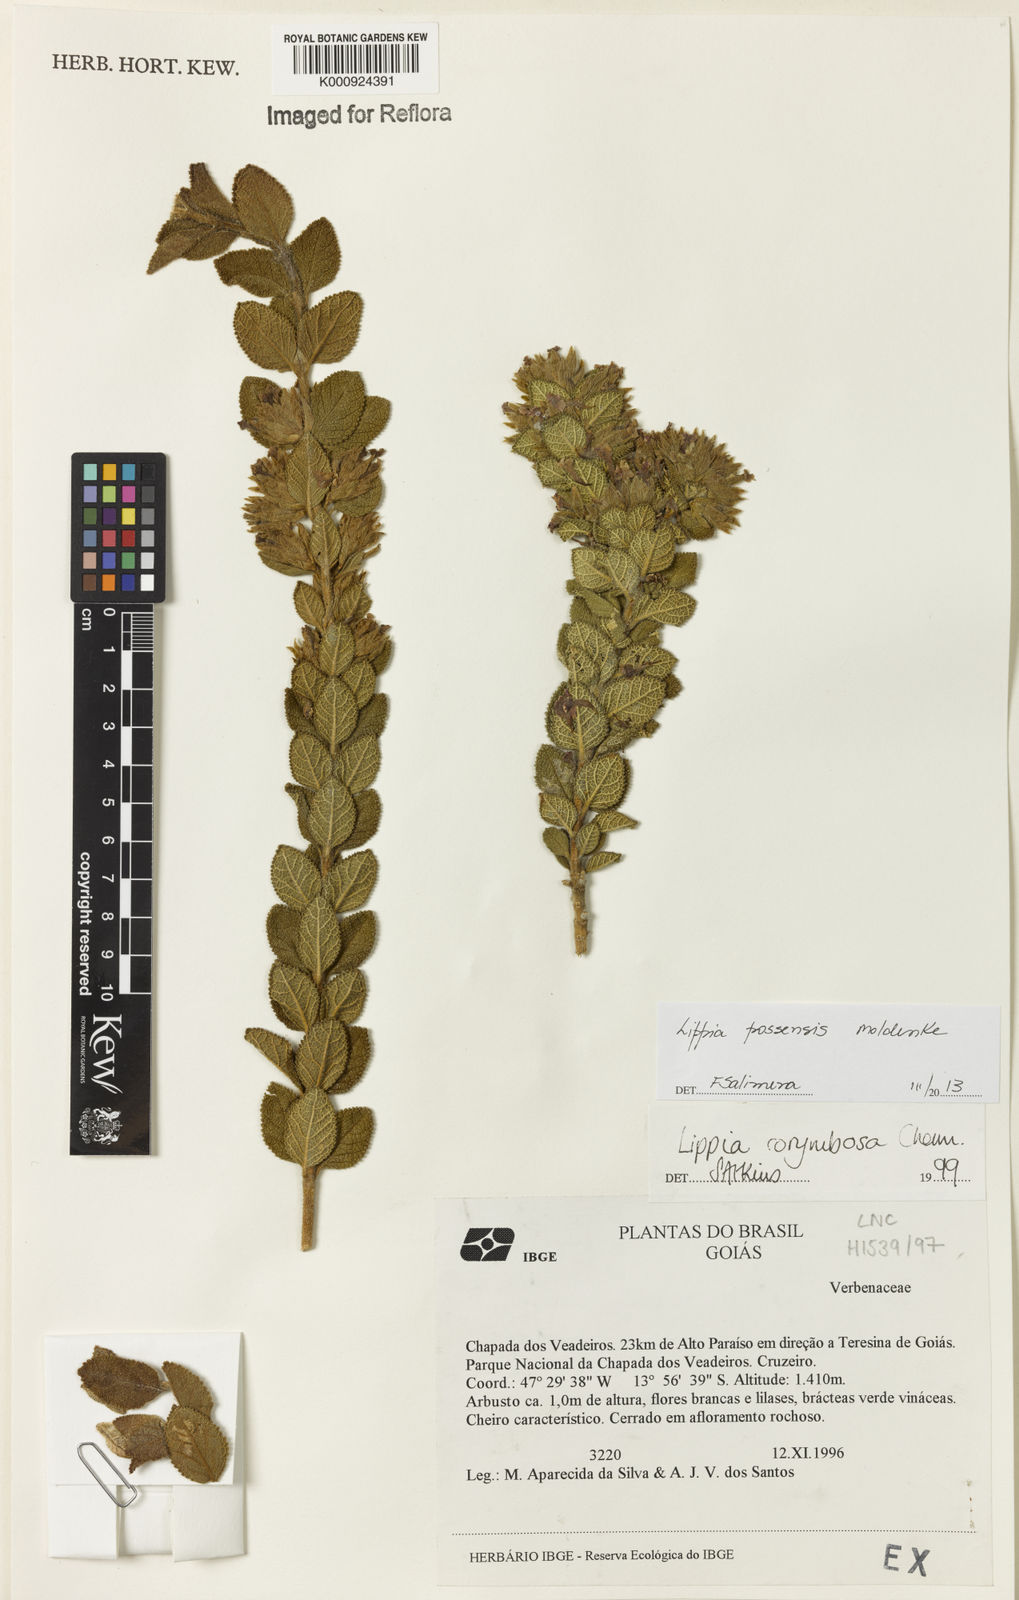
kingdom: Plantae
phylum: Tracheophyta
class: Magnoliopsida
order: Lamiales
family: Verbenaceae
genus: Lippia
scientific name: Lippia possensis
